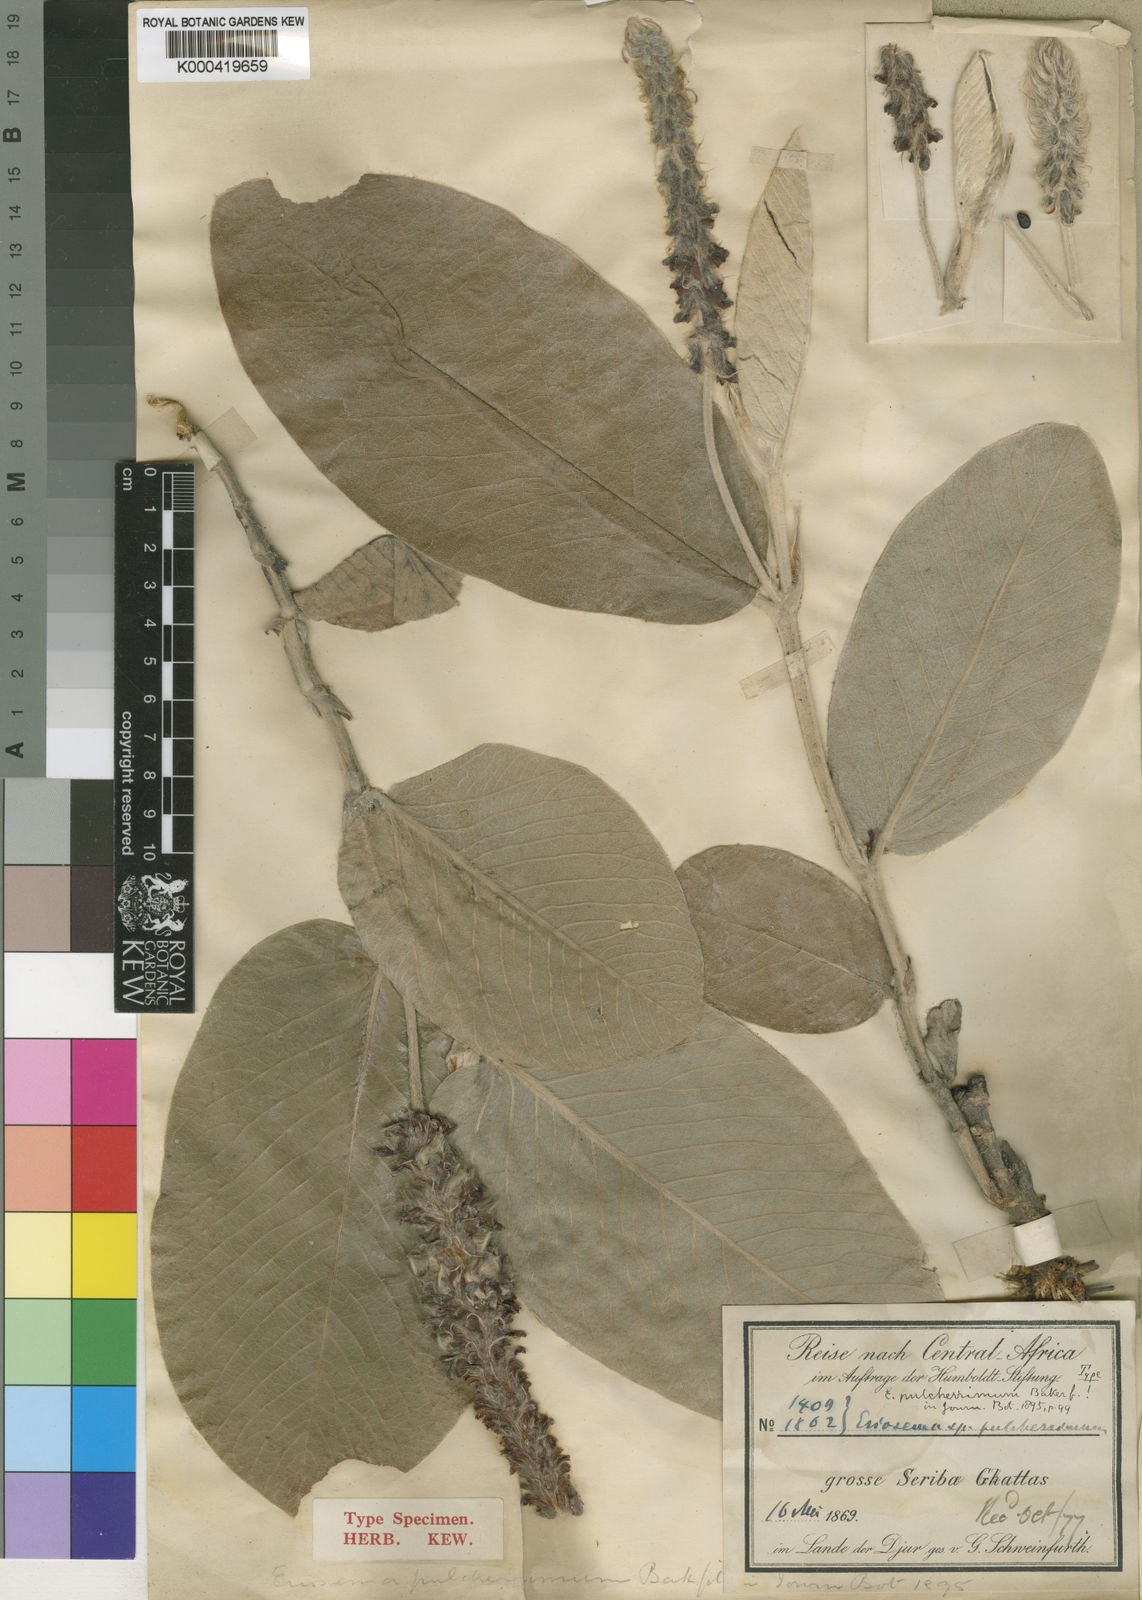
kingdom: Plantae
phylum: Tracheophyta
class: Magnoliopsida
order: Fabales
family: Fabaceae
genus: Eriosema
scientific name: Eriosema pellegrinii
